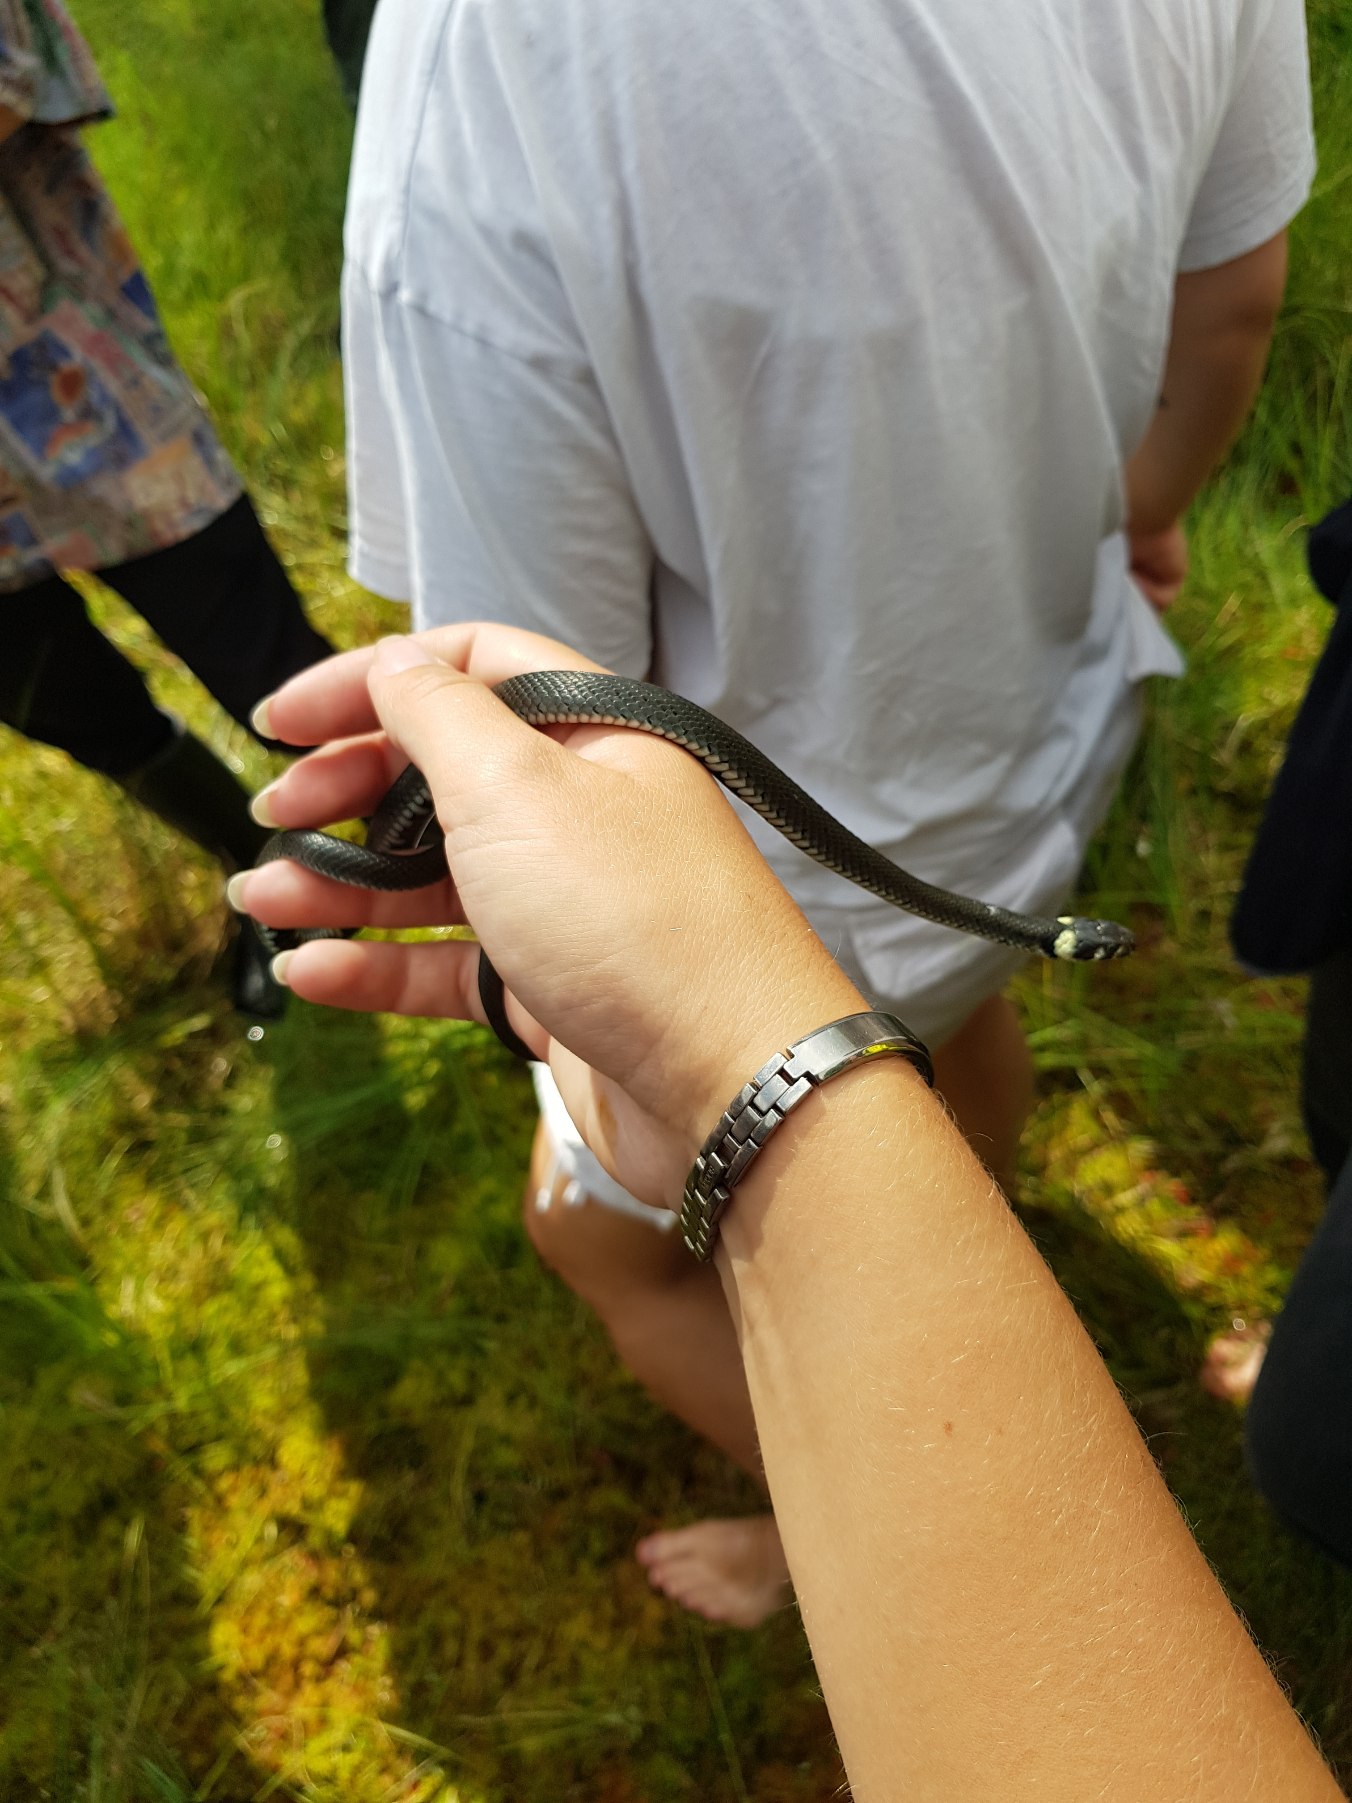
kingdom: Animalia
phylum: Chordata
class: Squamata
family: Colubridae
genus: Natrix
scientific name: Natrix natrix
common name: Snog
